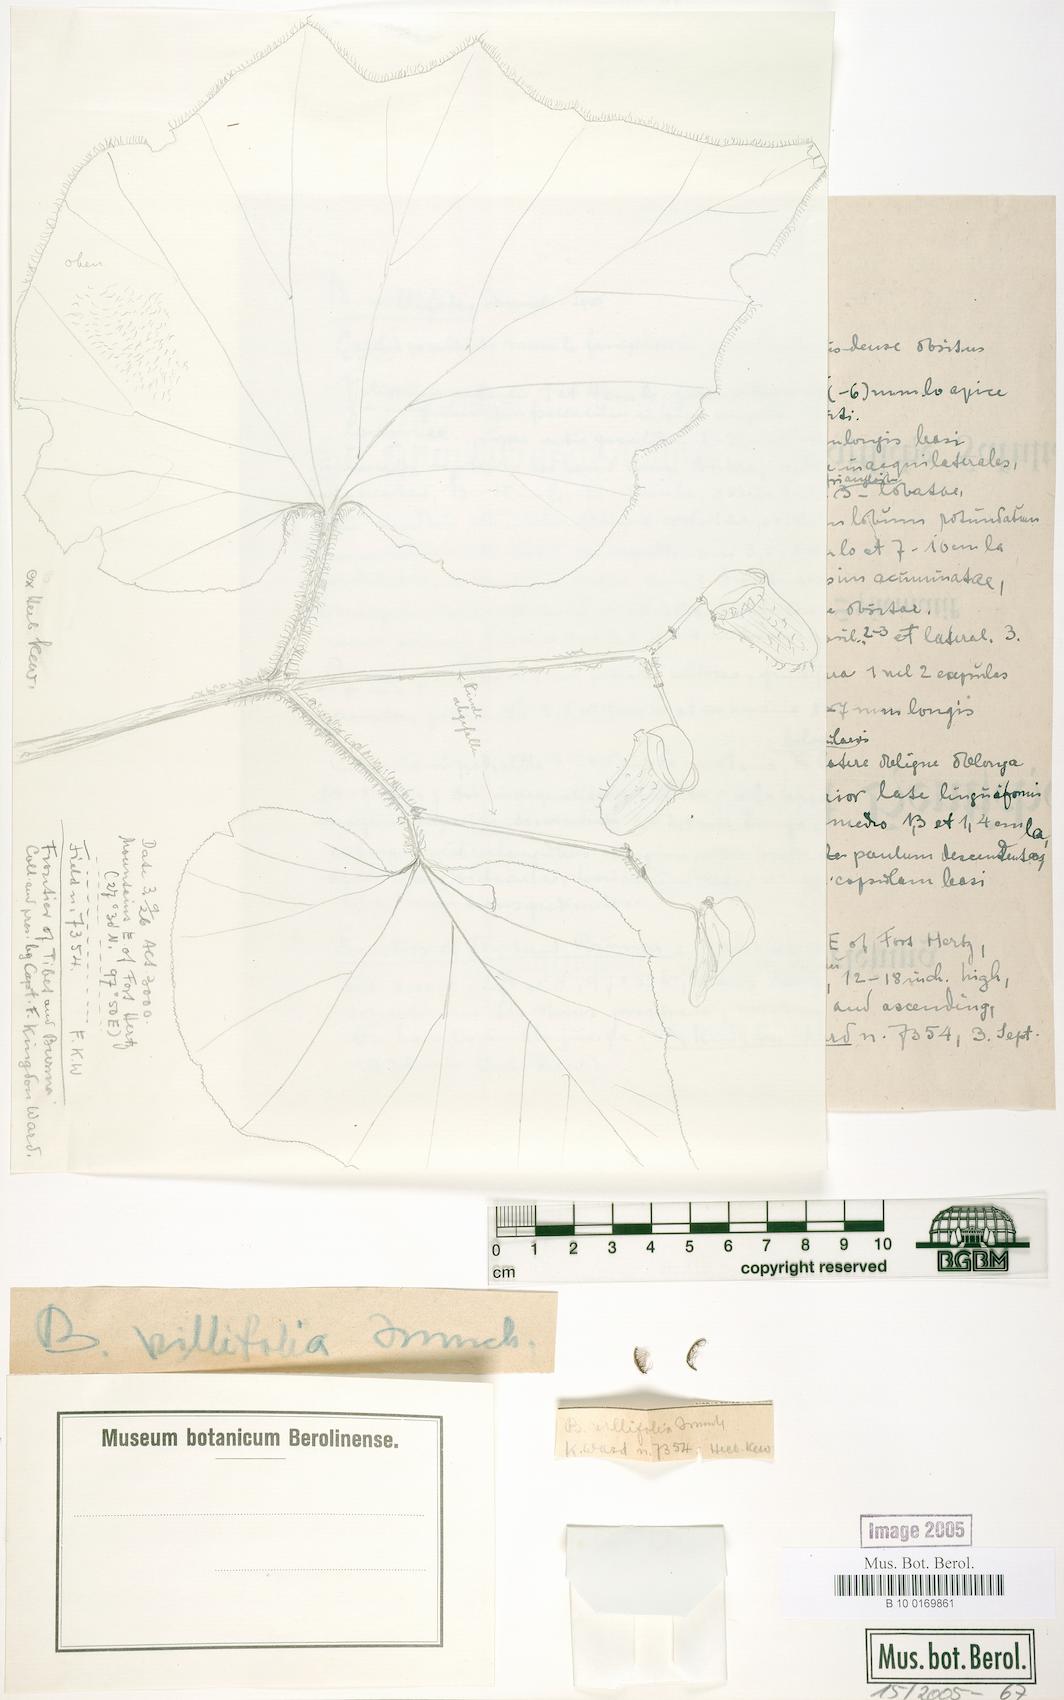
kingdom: Plantae
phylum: Tracheophyta
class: Magnoliopsida
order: Cucurbitales
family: Begoniaceae
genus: Begonia
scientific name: Begonia villifolia
